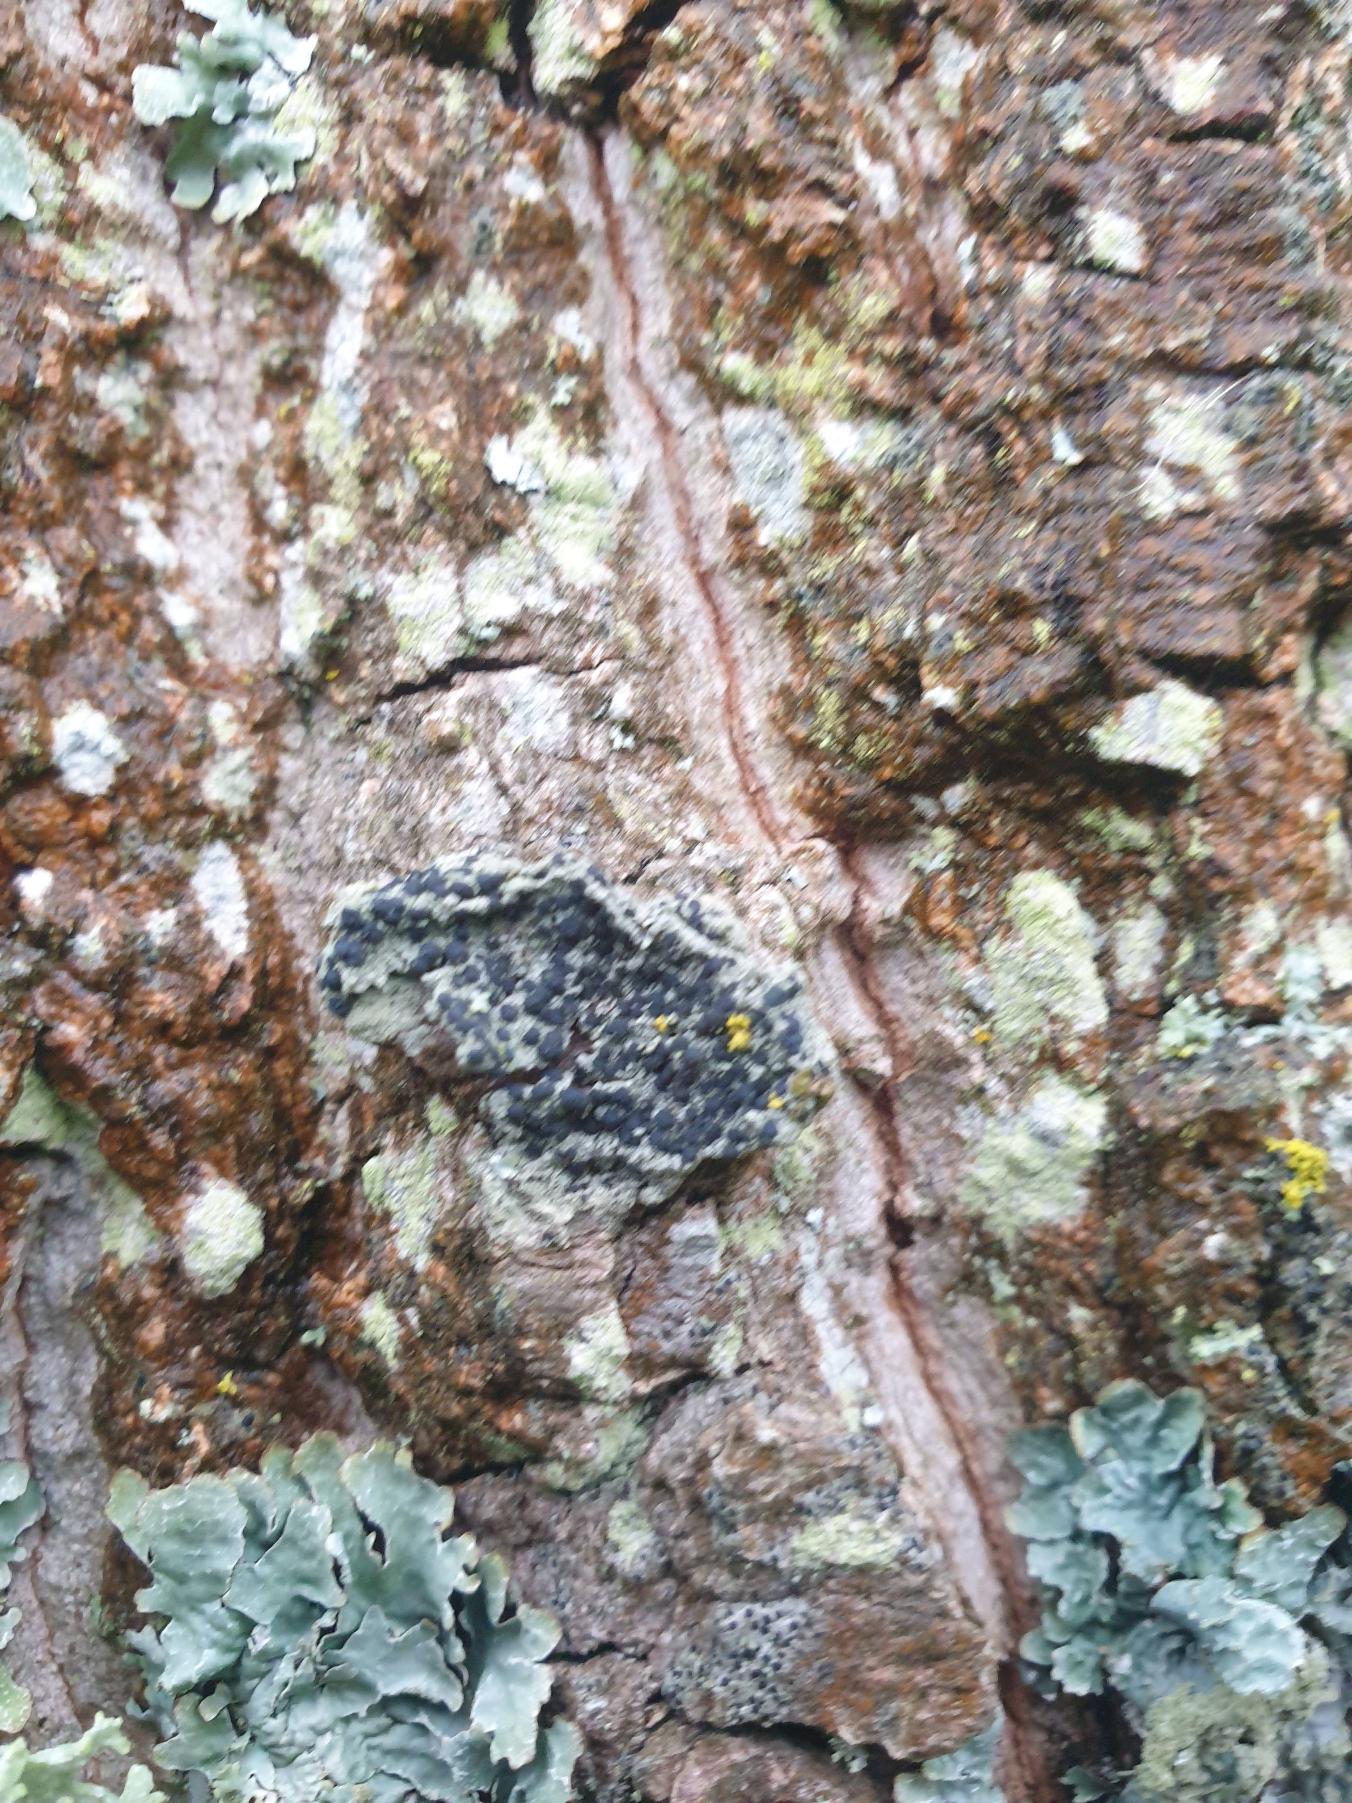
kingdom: Fungi
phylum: Ascomycota
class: Lecanoromycetes
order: Lecanorales
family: Lecanoraceae
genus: Lecidella
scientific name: Lecidella elaeochroma
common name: Grågrøn skivelav
